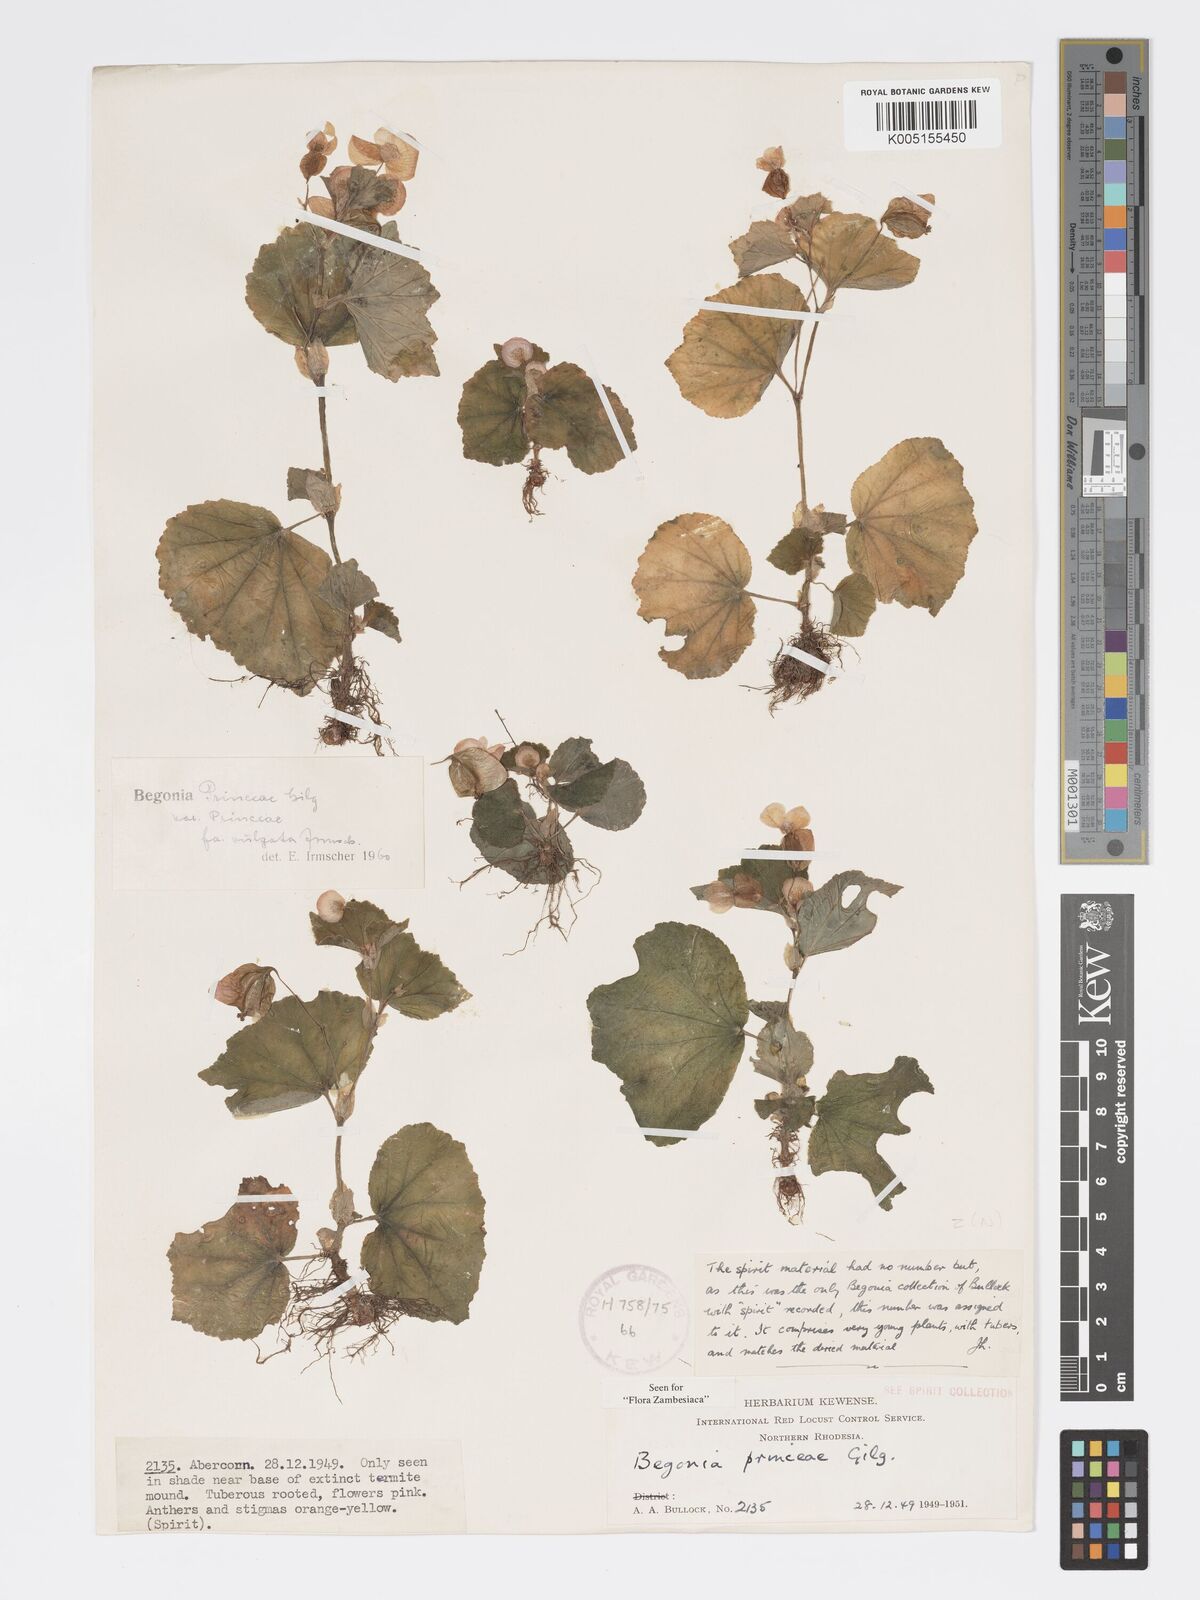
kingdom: Plantae
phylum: Tracheophyta
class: Magnoliopsida
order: Cucurbitales
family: Begoniaceae
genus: Begonia
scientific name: Begonia princeae
